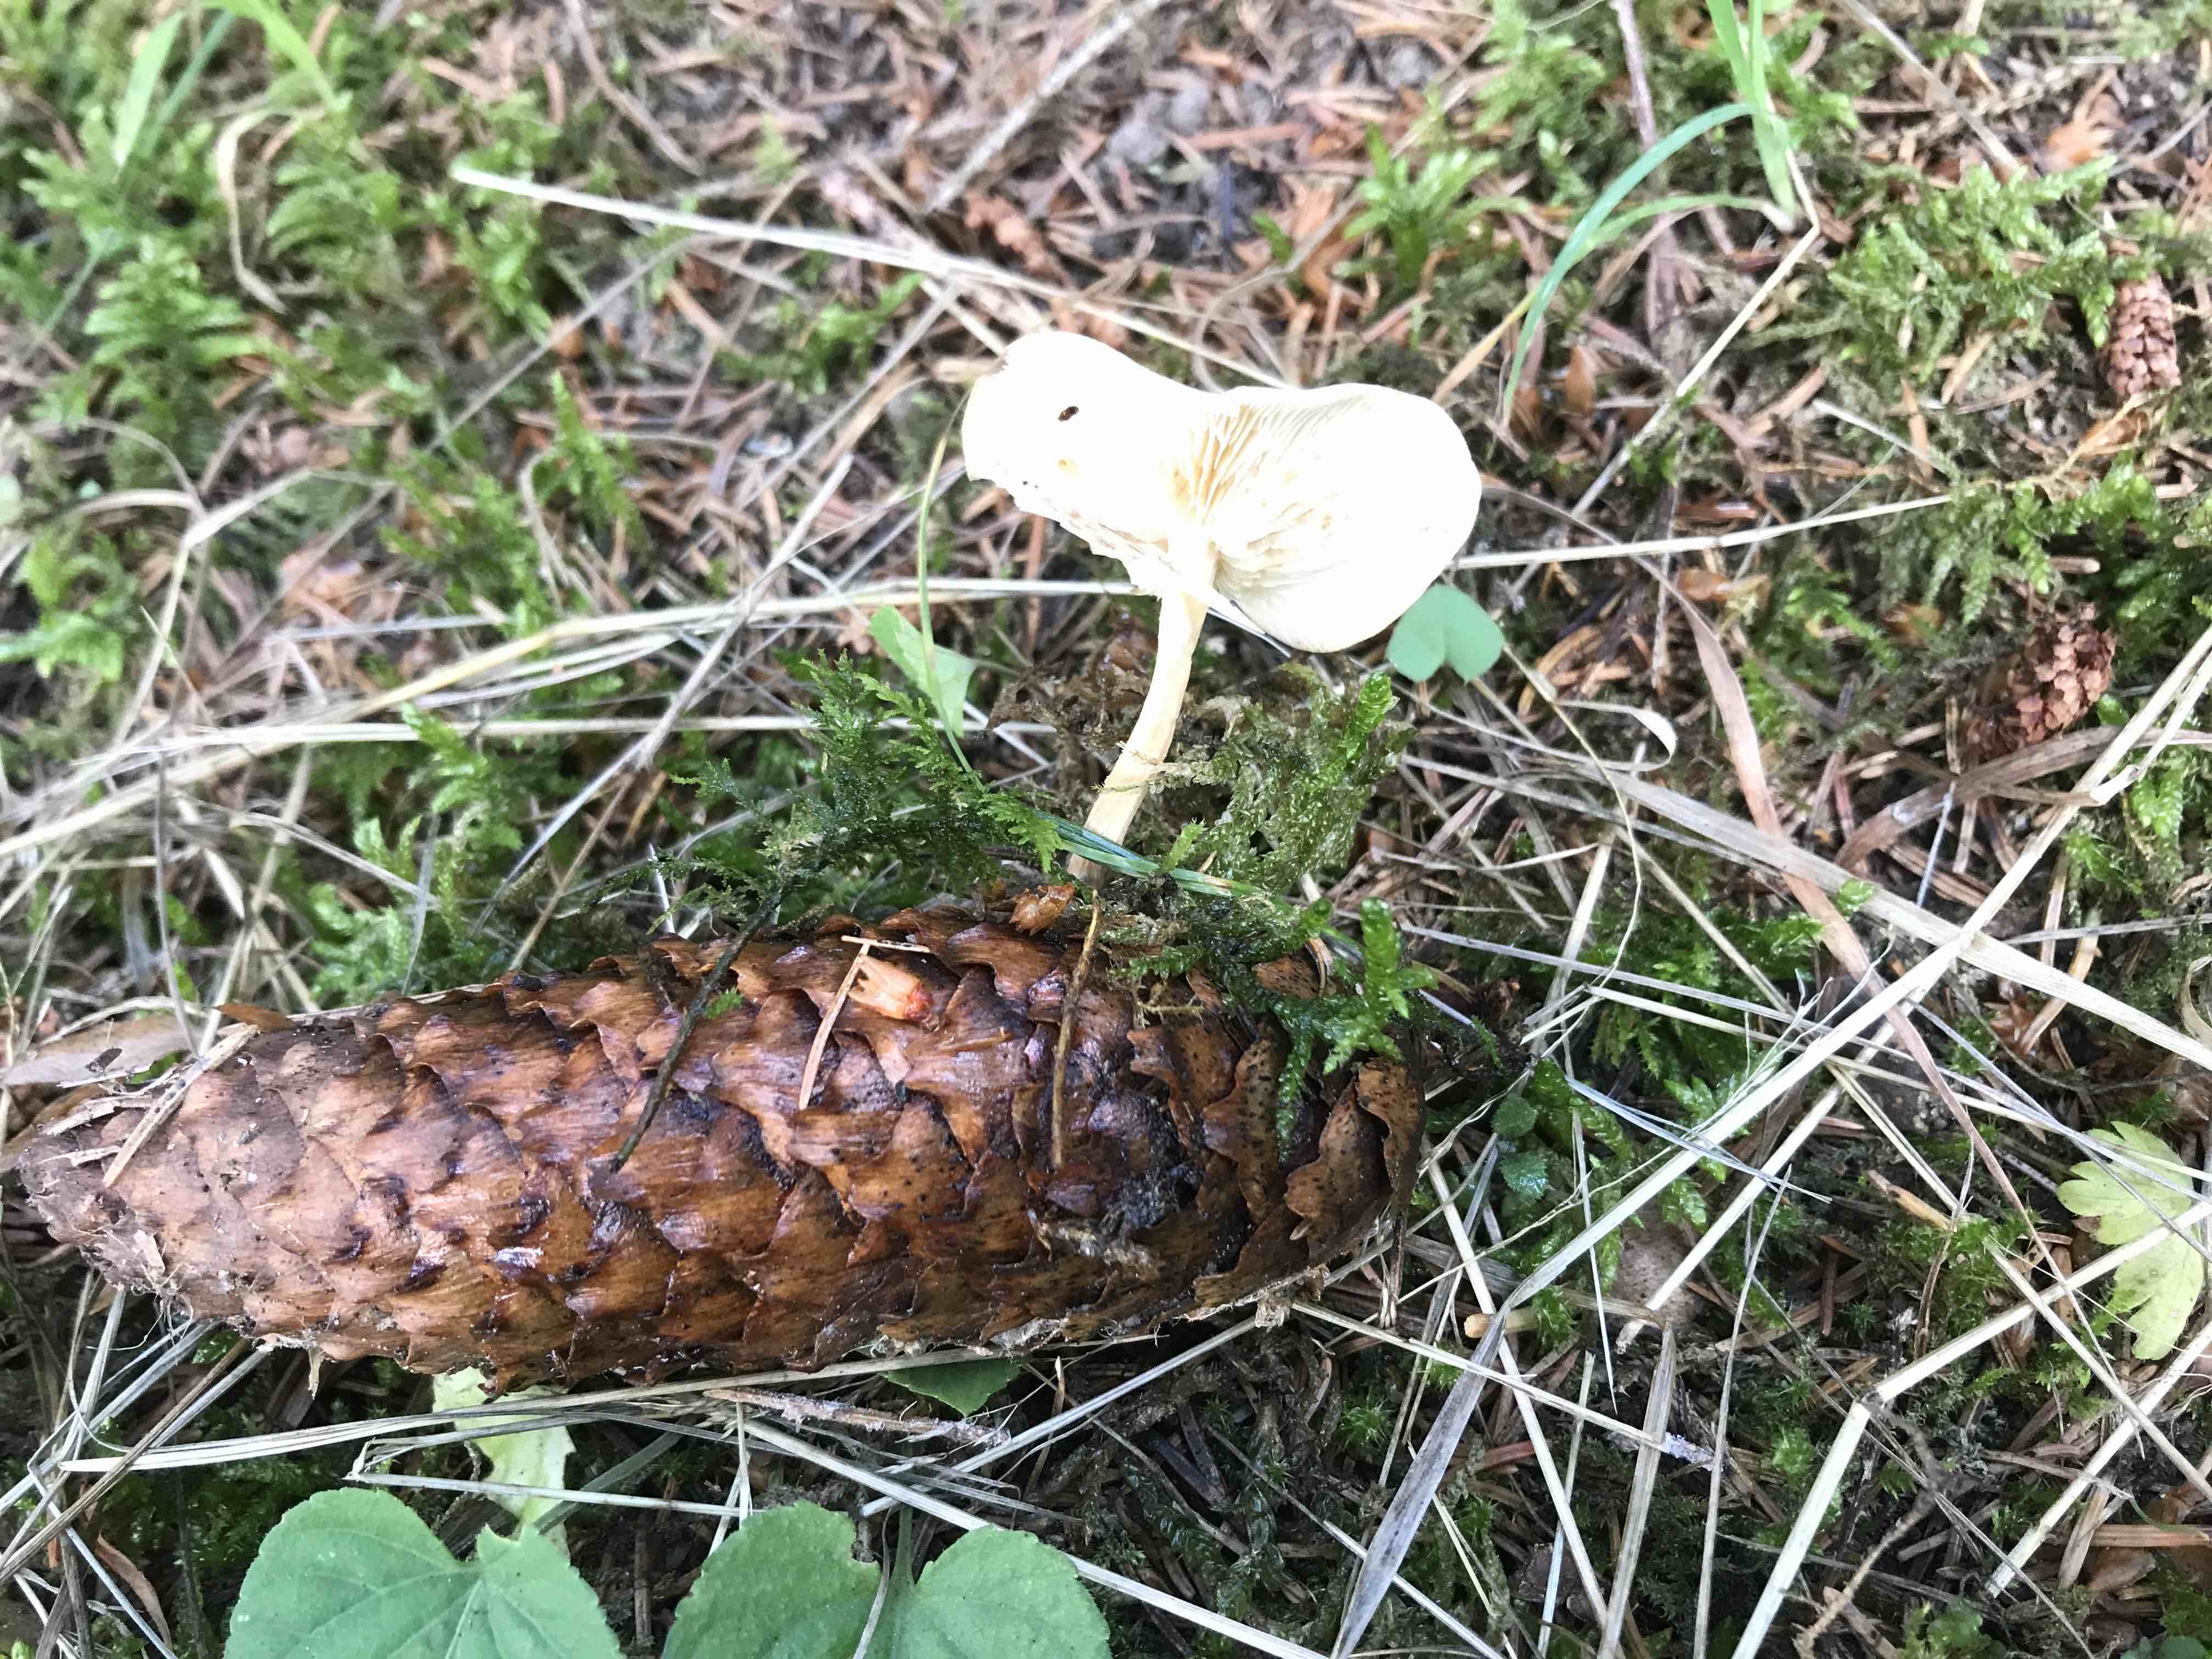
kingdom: Fungi
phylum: Basidiomycota
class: Agaricomycetes
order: Agaricales
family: Physalacriaceae
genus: Strobilurus
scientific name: Strobilurus esculentus
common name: gran-koglehat
